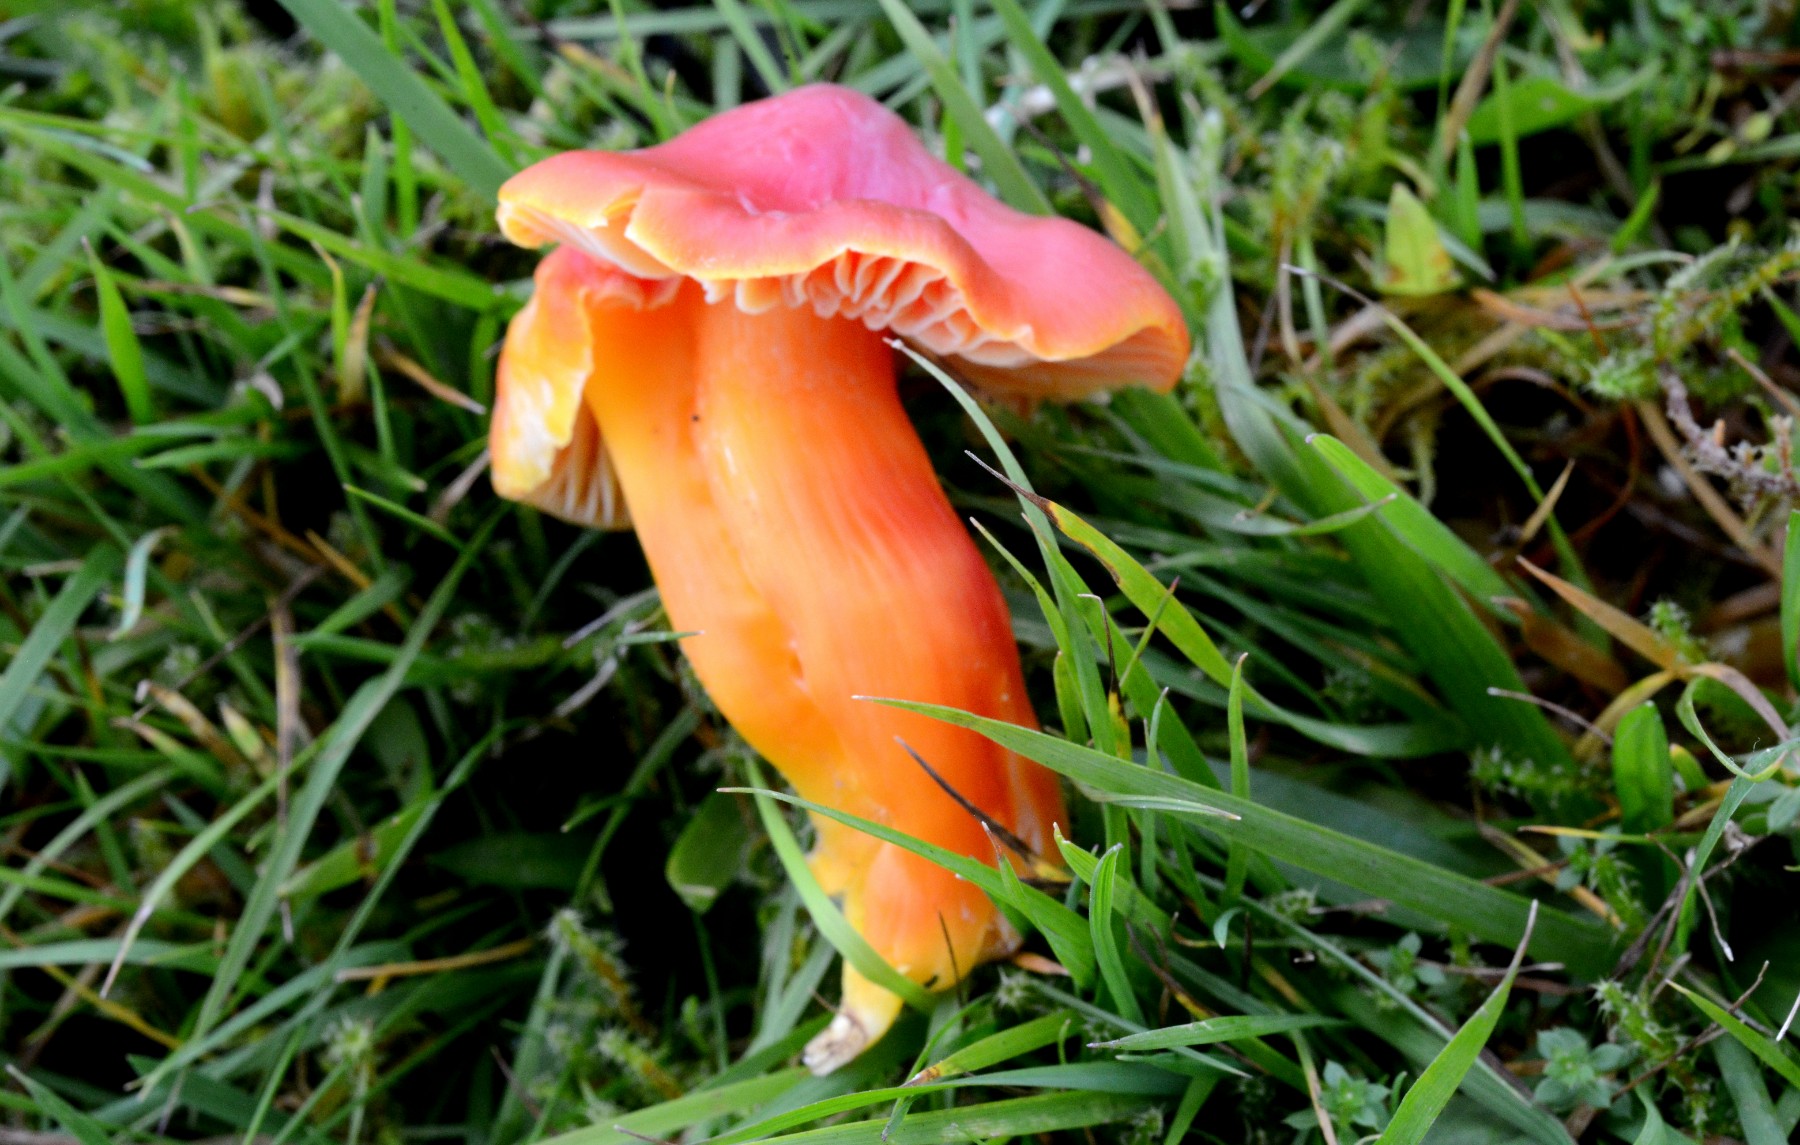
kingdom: Fungi
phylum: Basidiomycota
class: Agaricomycetes
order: Agaricales
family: Hygrophoraceae
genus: Hygrocybe
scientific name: Hygrocybe splendidissima
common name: knaldrød vokshat
